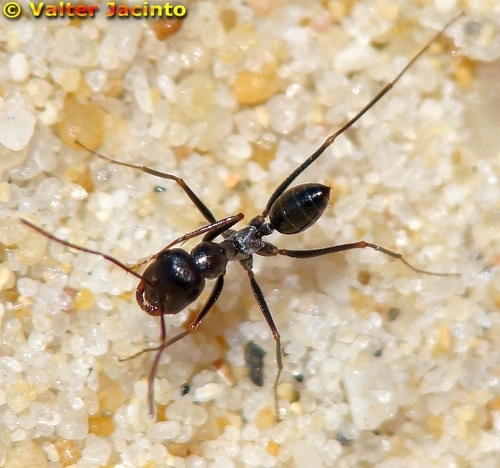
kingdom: Animalia
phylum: Arthropoda
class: Insecta
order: Hymenoptera
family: Formicidae
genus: Cataglyphis
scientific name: Cataglyphis cursor
